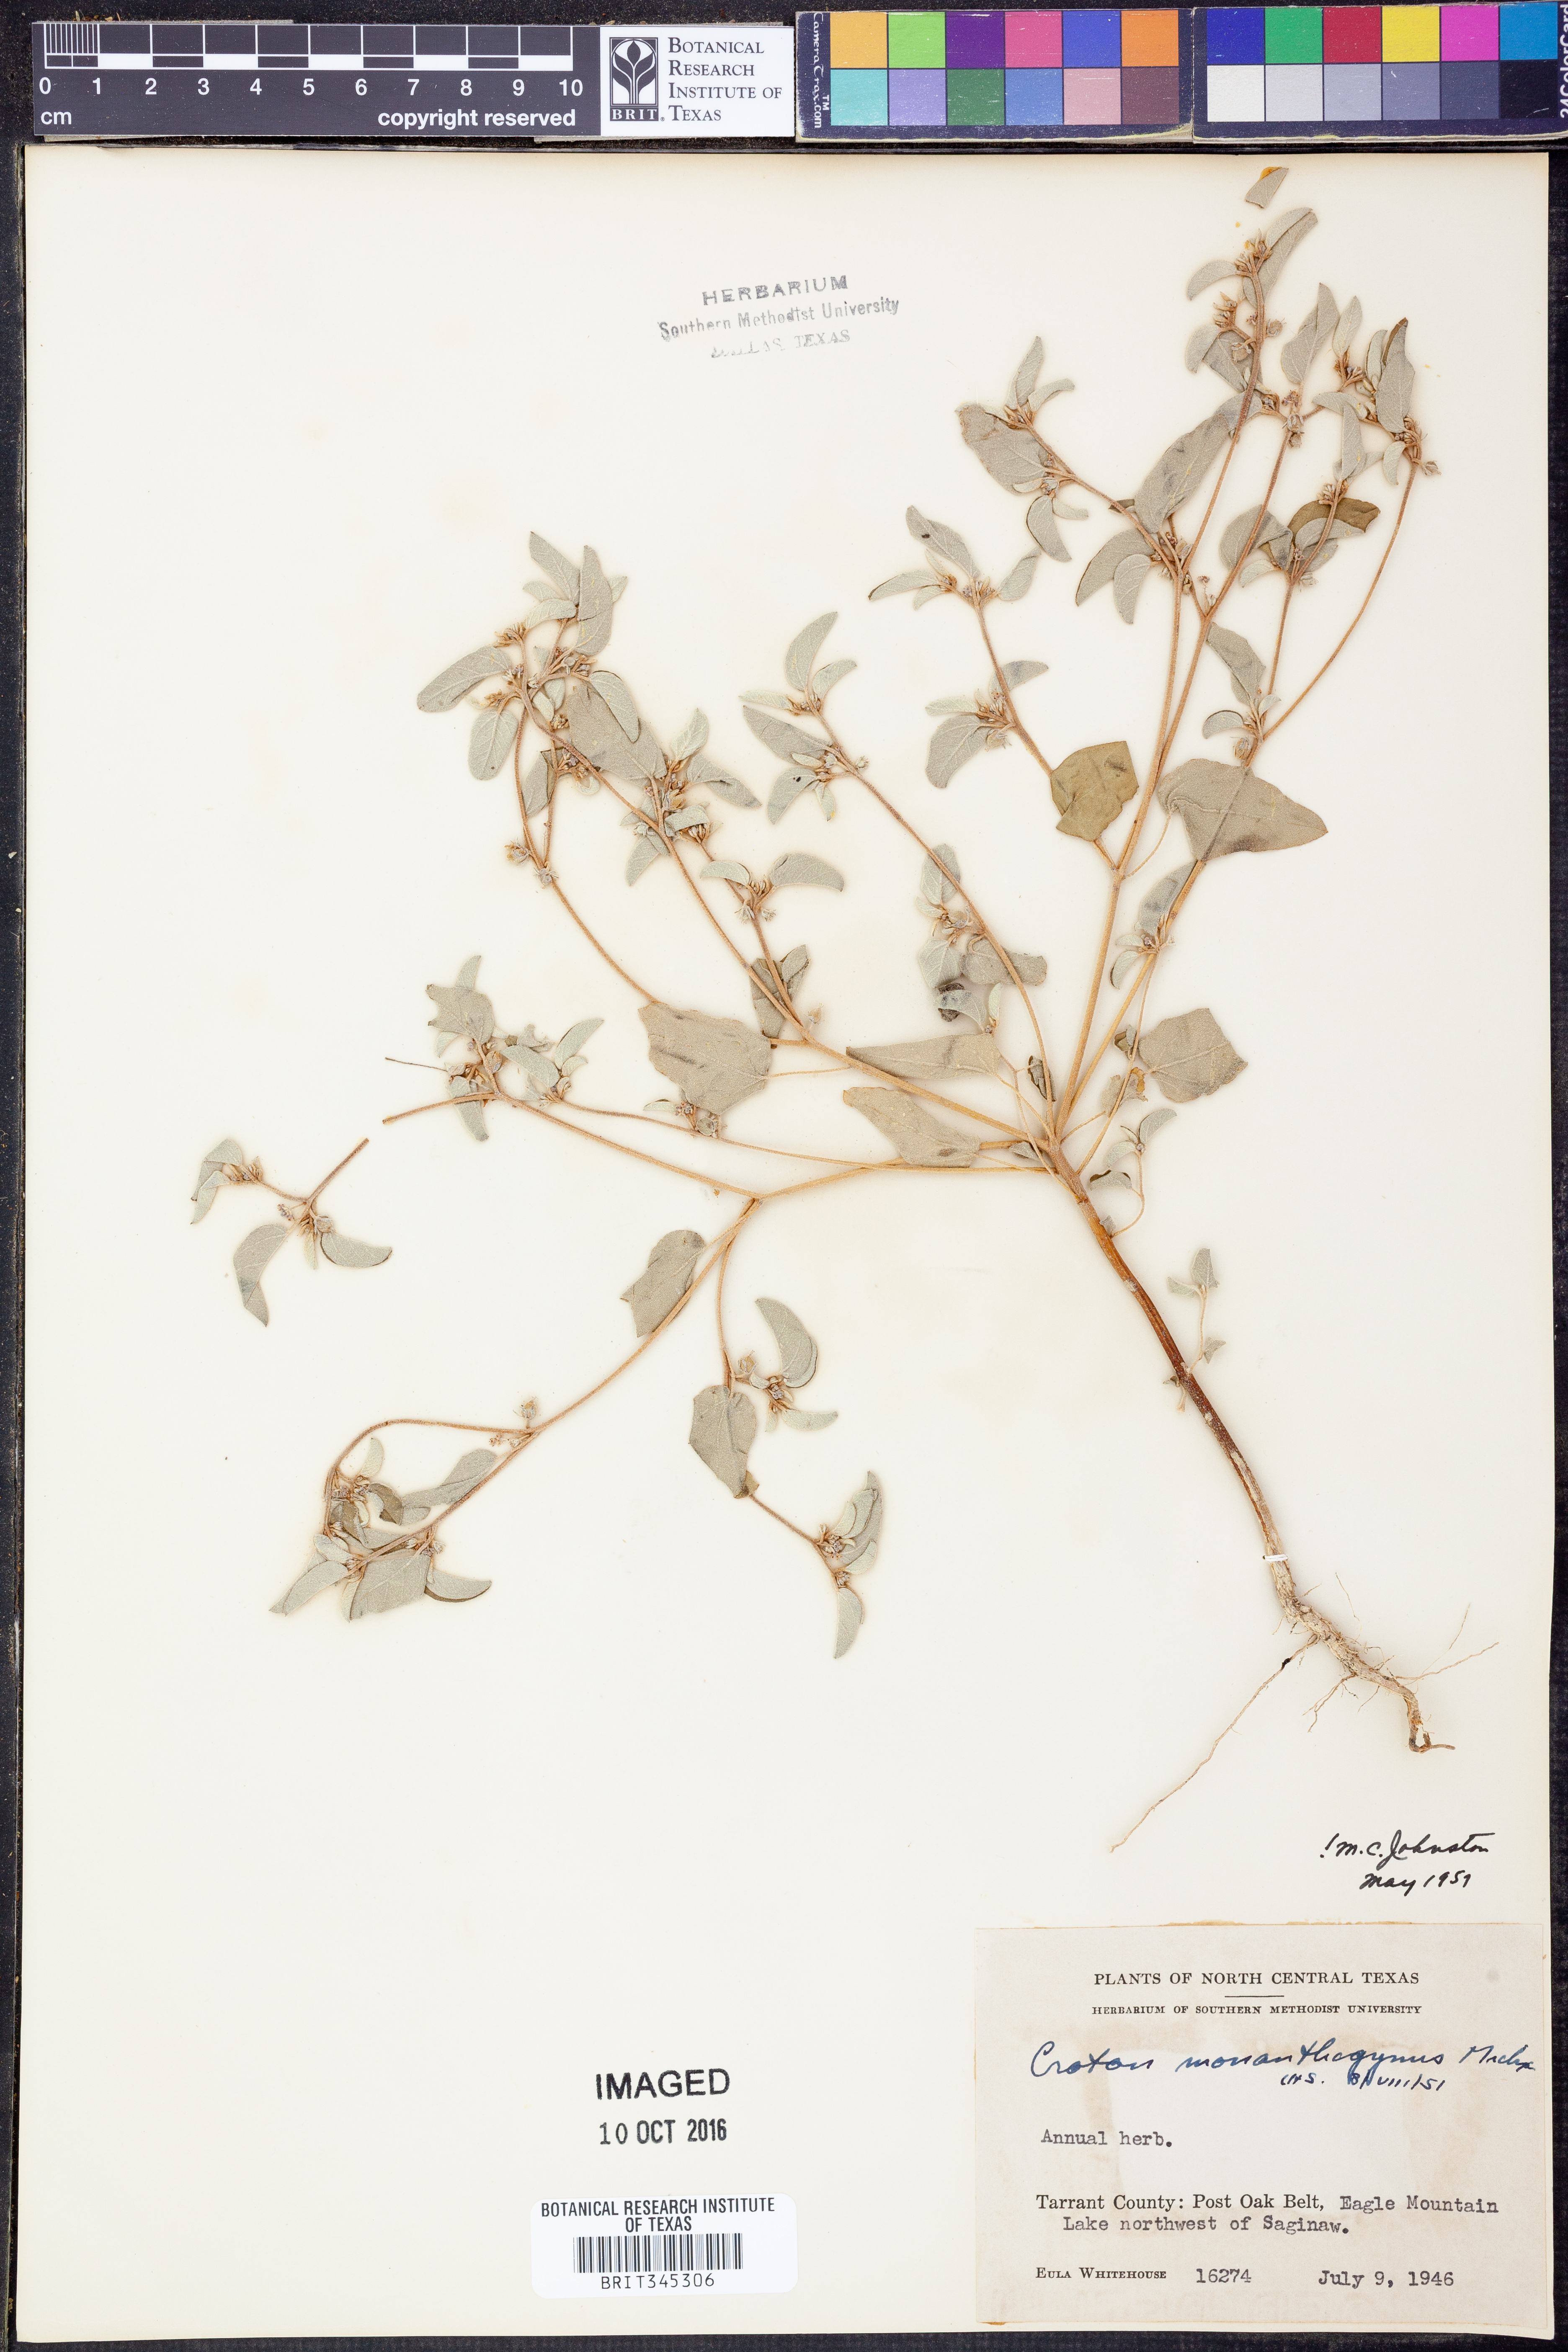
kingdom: Plantae
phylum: Tracheophyta
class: Magnoliopsida
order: Malpighiales
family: Euphorbiaceae
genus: Croton
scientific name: Croton monanthogynus
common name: One-seed croton
